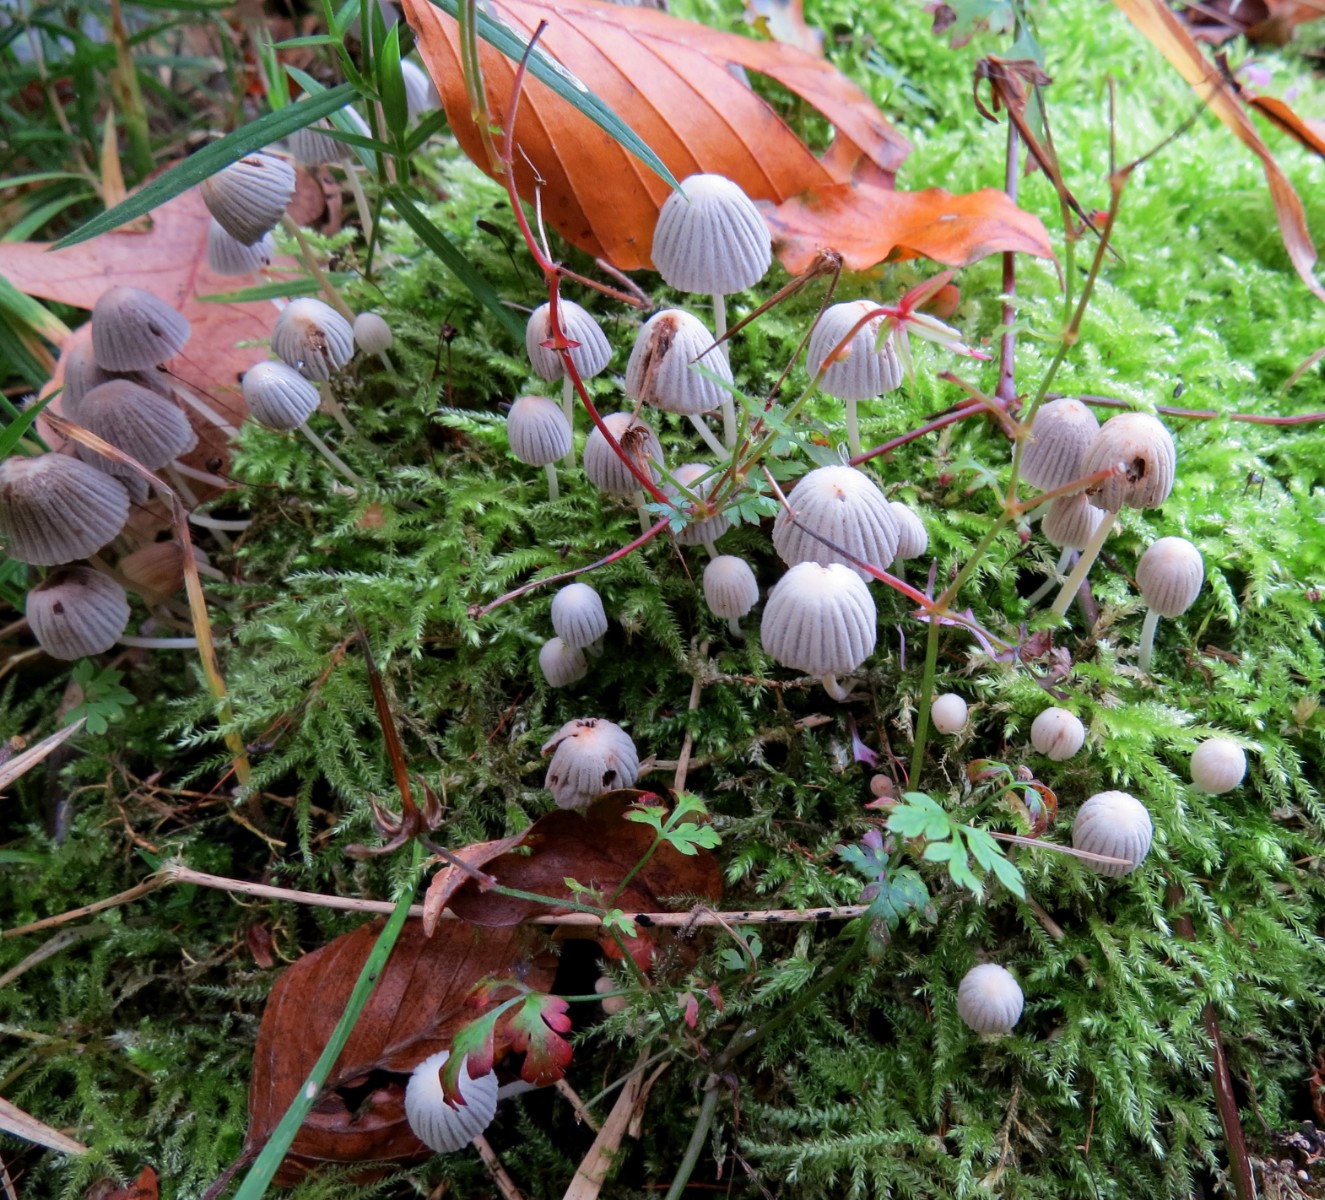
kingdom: Fungi
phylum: Basidiomycota
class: Agaricomycetes
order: Agaricales
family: Psathyrellaceae
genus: Coprinellus
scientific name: Coprinellus disseminatus
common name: bredsået blækhat
